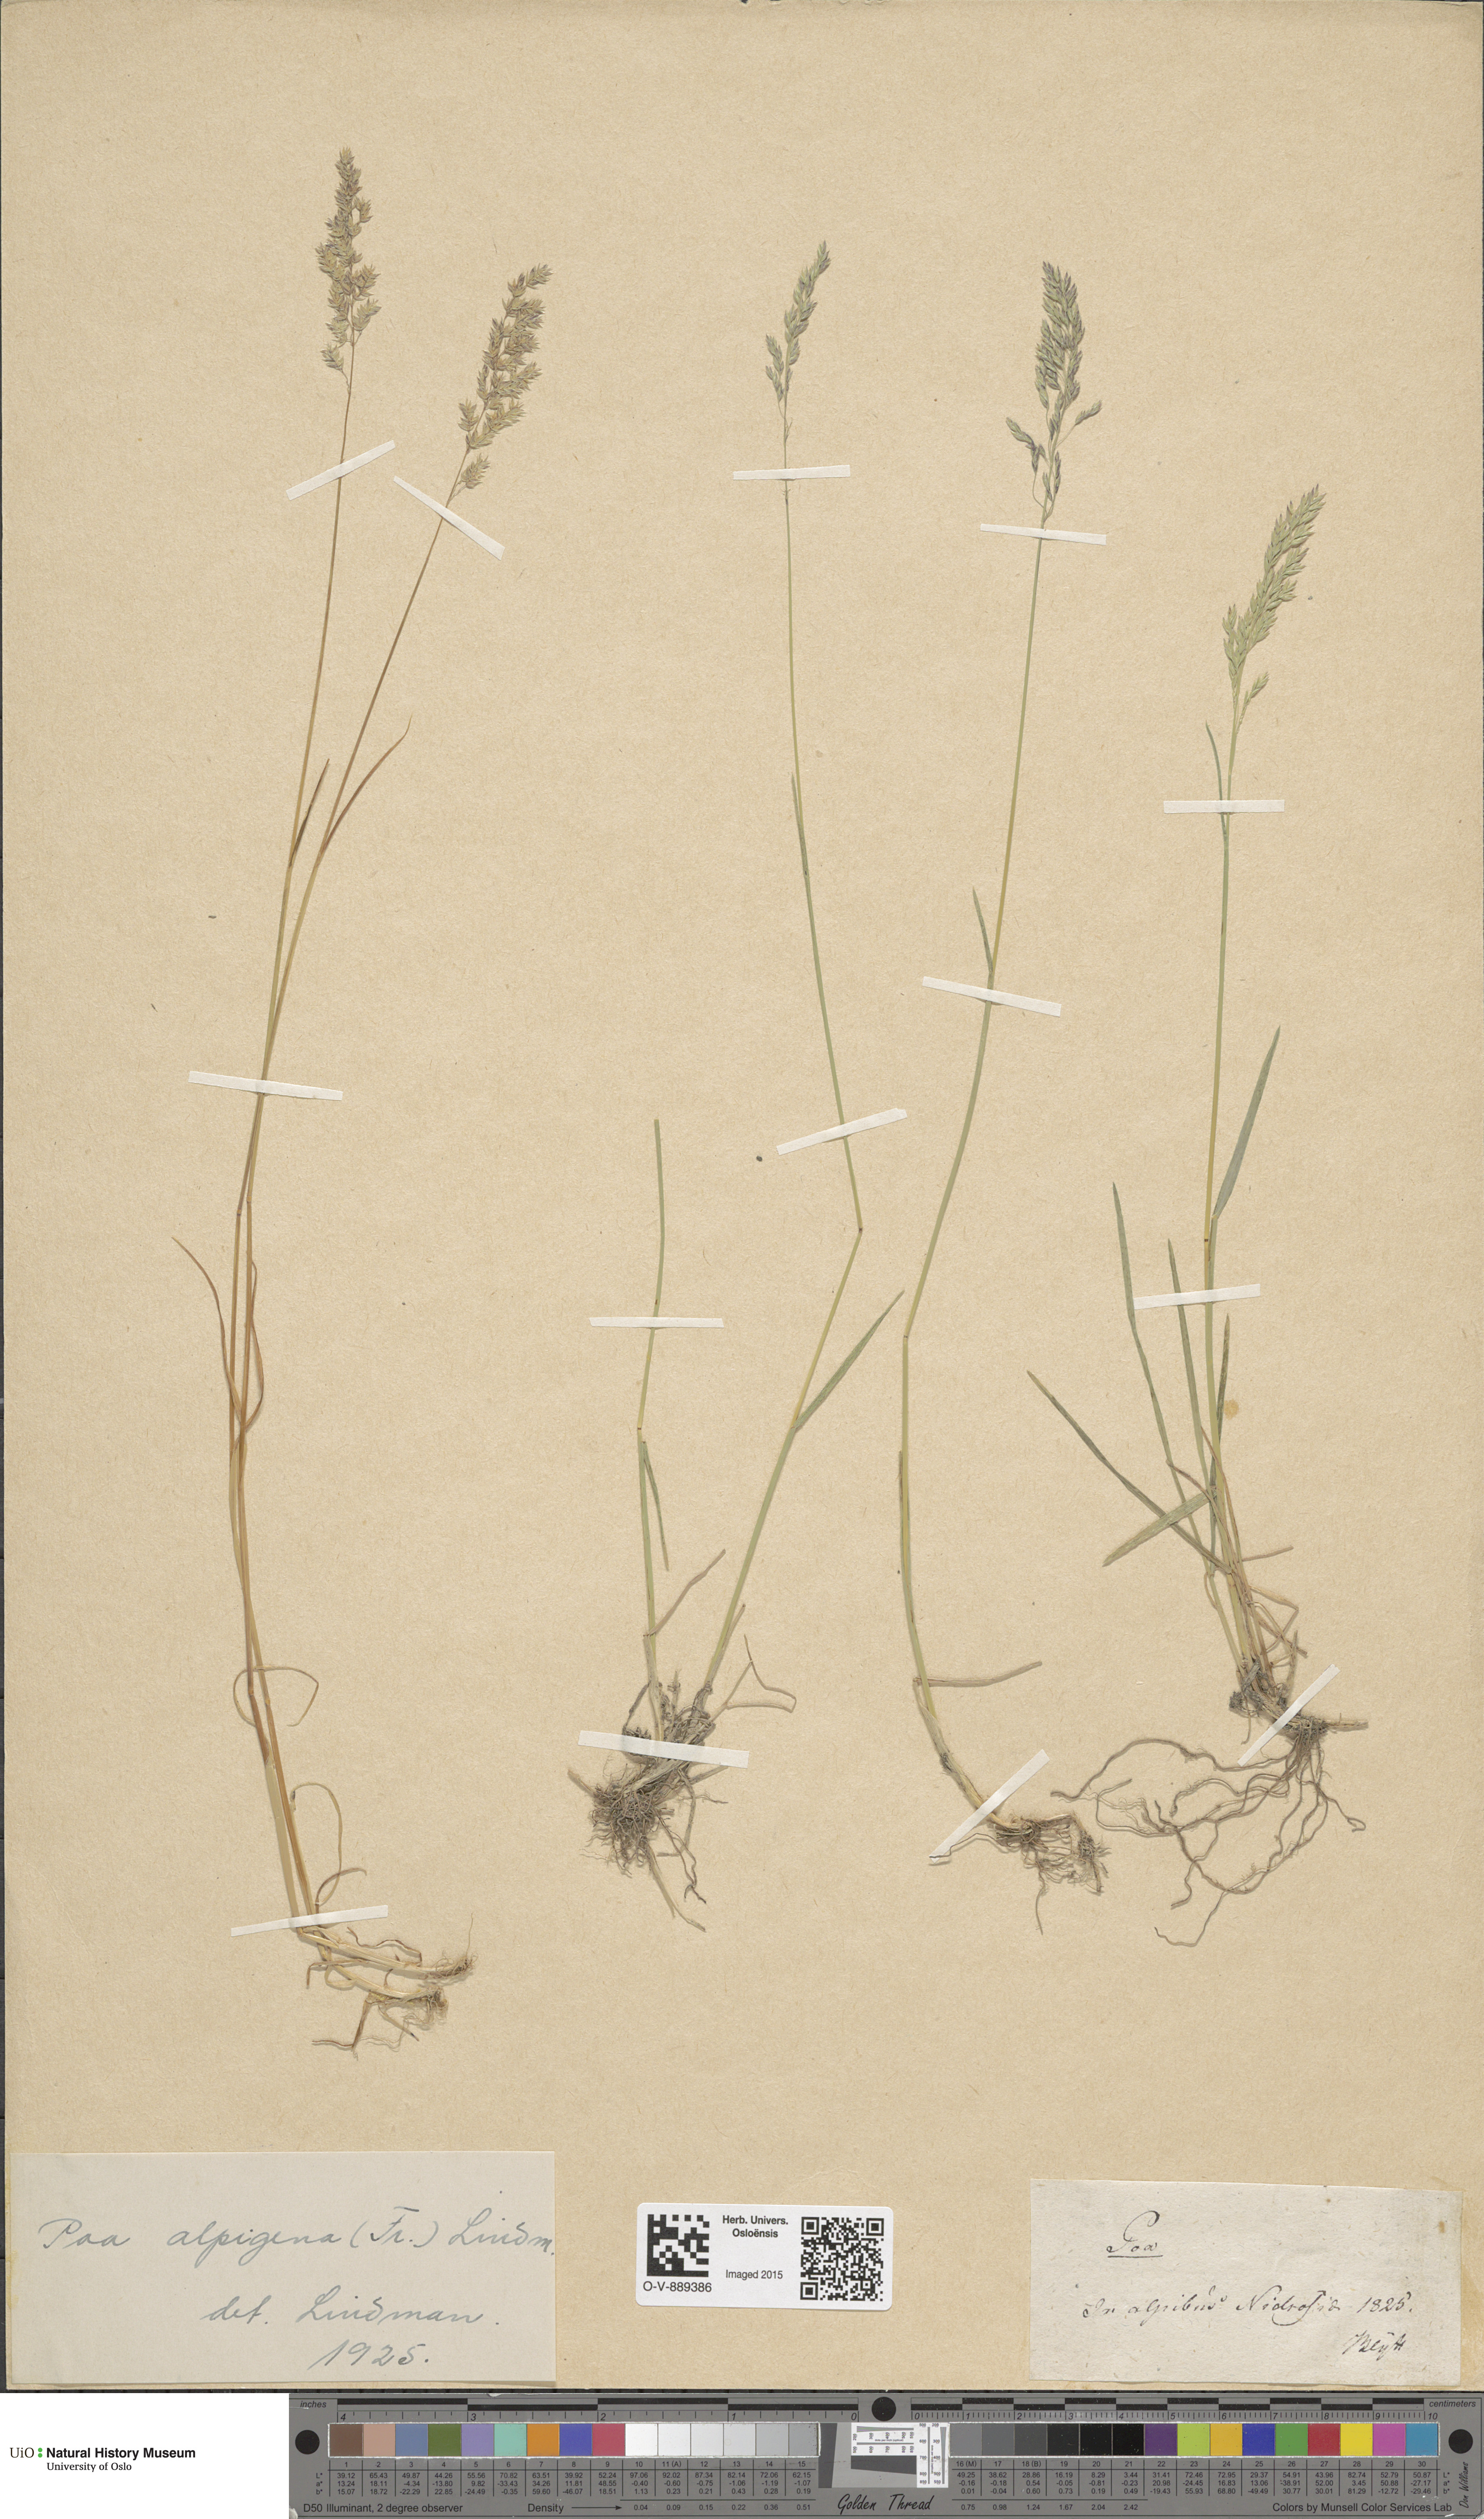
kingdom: Plantae
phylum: Tracheophyta
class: Liliopsida
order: Poales
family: Poaceae
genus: Poa
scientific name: Poa alpigena
